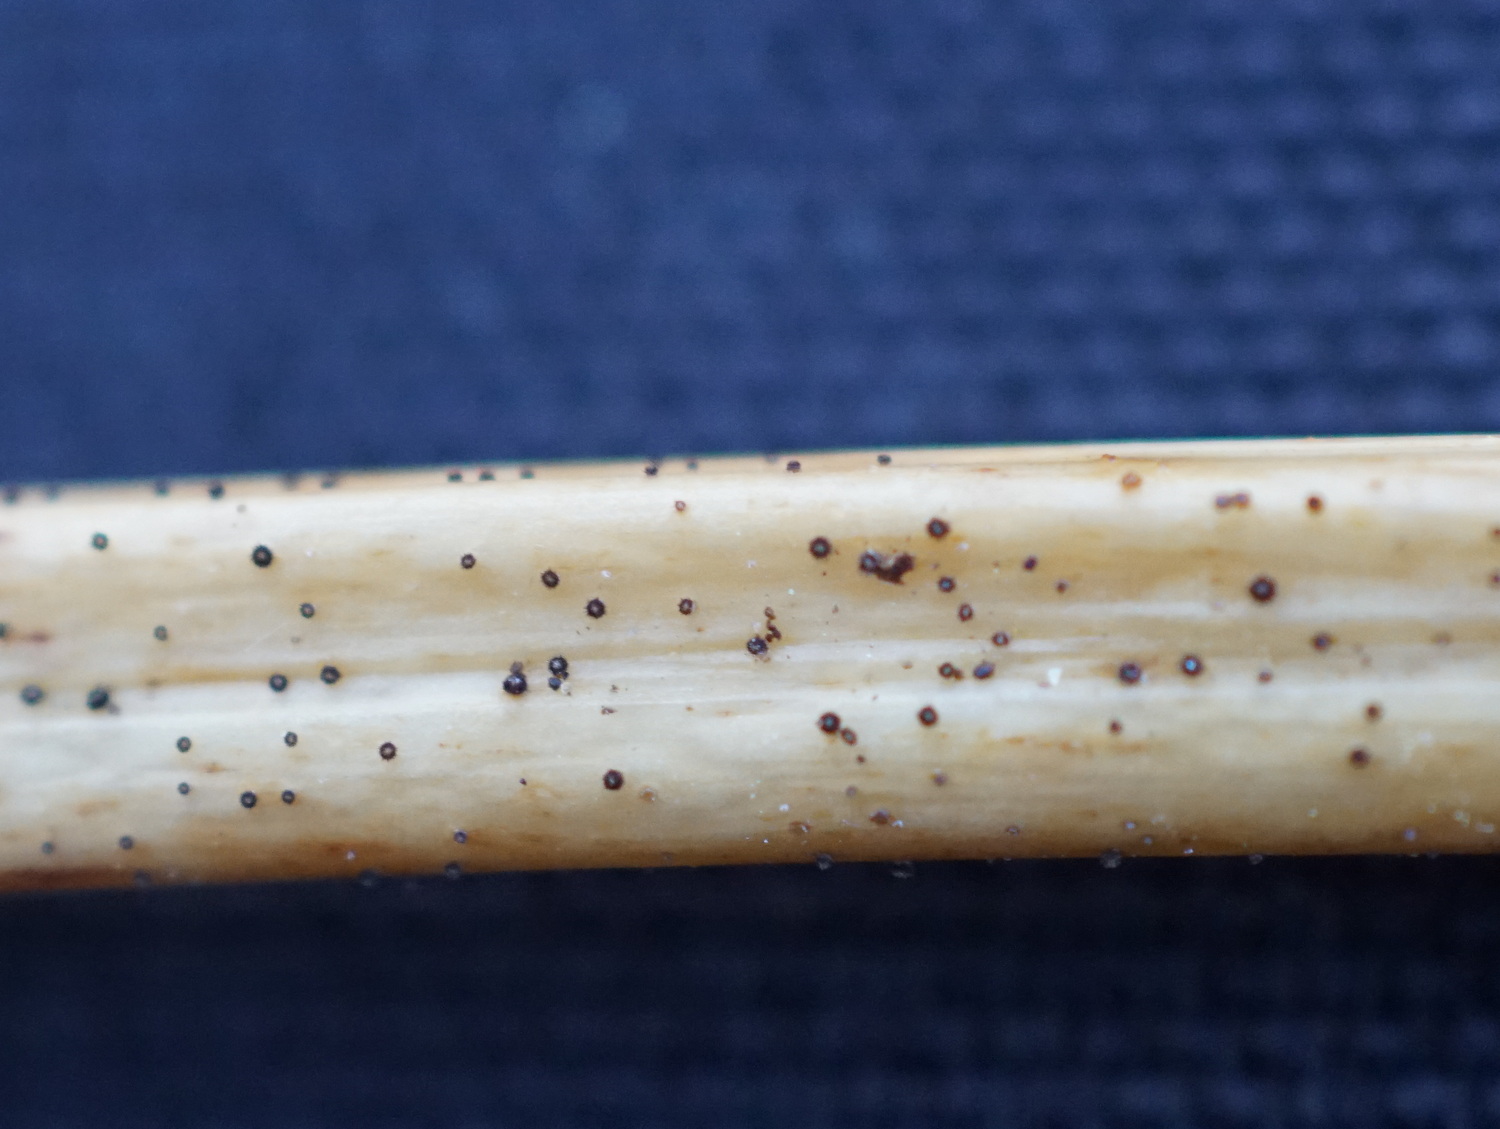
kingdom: Fungi
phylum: Ascomycota
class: Leotiomycetes
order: Helotiales
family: Solenopeziaceae
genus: Lasiobelonium
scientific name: Lasiobelonium nidulus
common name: rede-frynseskive
